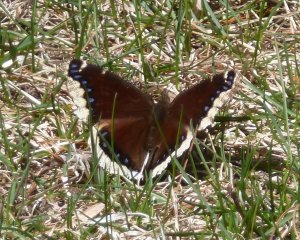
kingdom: Animalia
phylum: Arthropoda
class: Insecta
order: Lepidoptera
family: Nymphalidae
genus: Nymphalis
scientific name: Nymphalis antiopa
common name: Mourning Cloak
